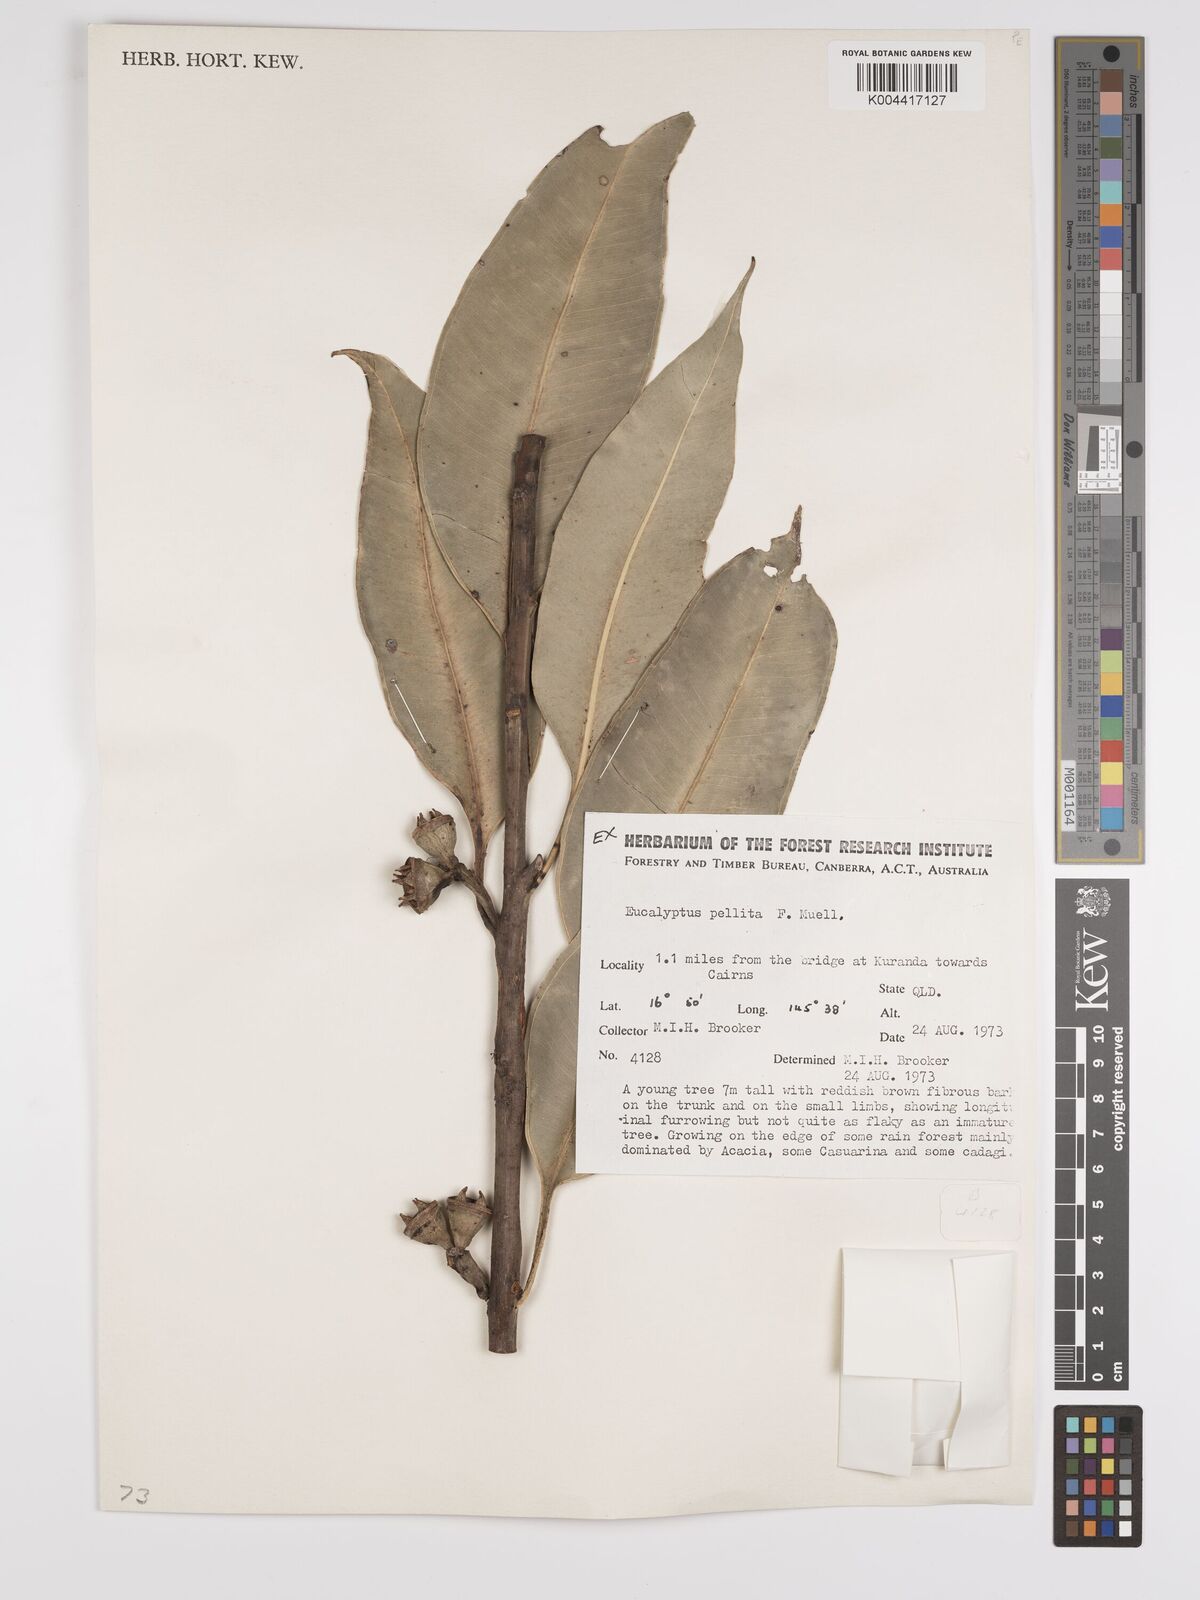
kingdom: Plantae
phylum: Tracheophyta
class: Magnoliopsida
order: Myrtales
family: Myrtaceae
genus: Eucalyptus
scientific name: Eucalyptus pellita
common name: Large-fruited-red-mahogany
